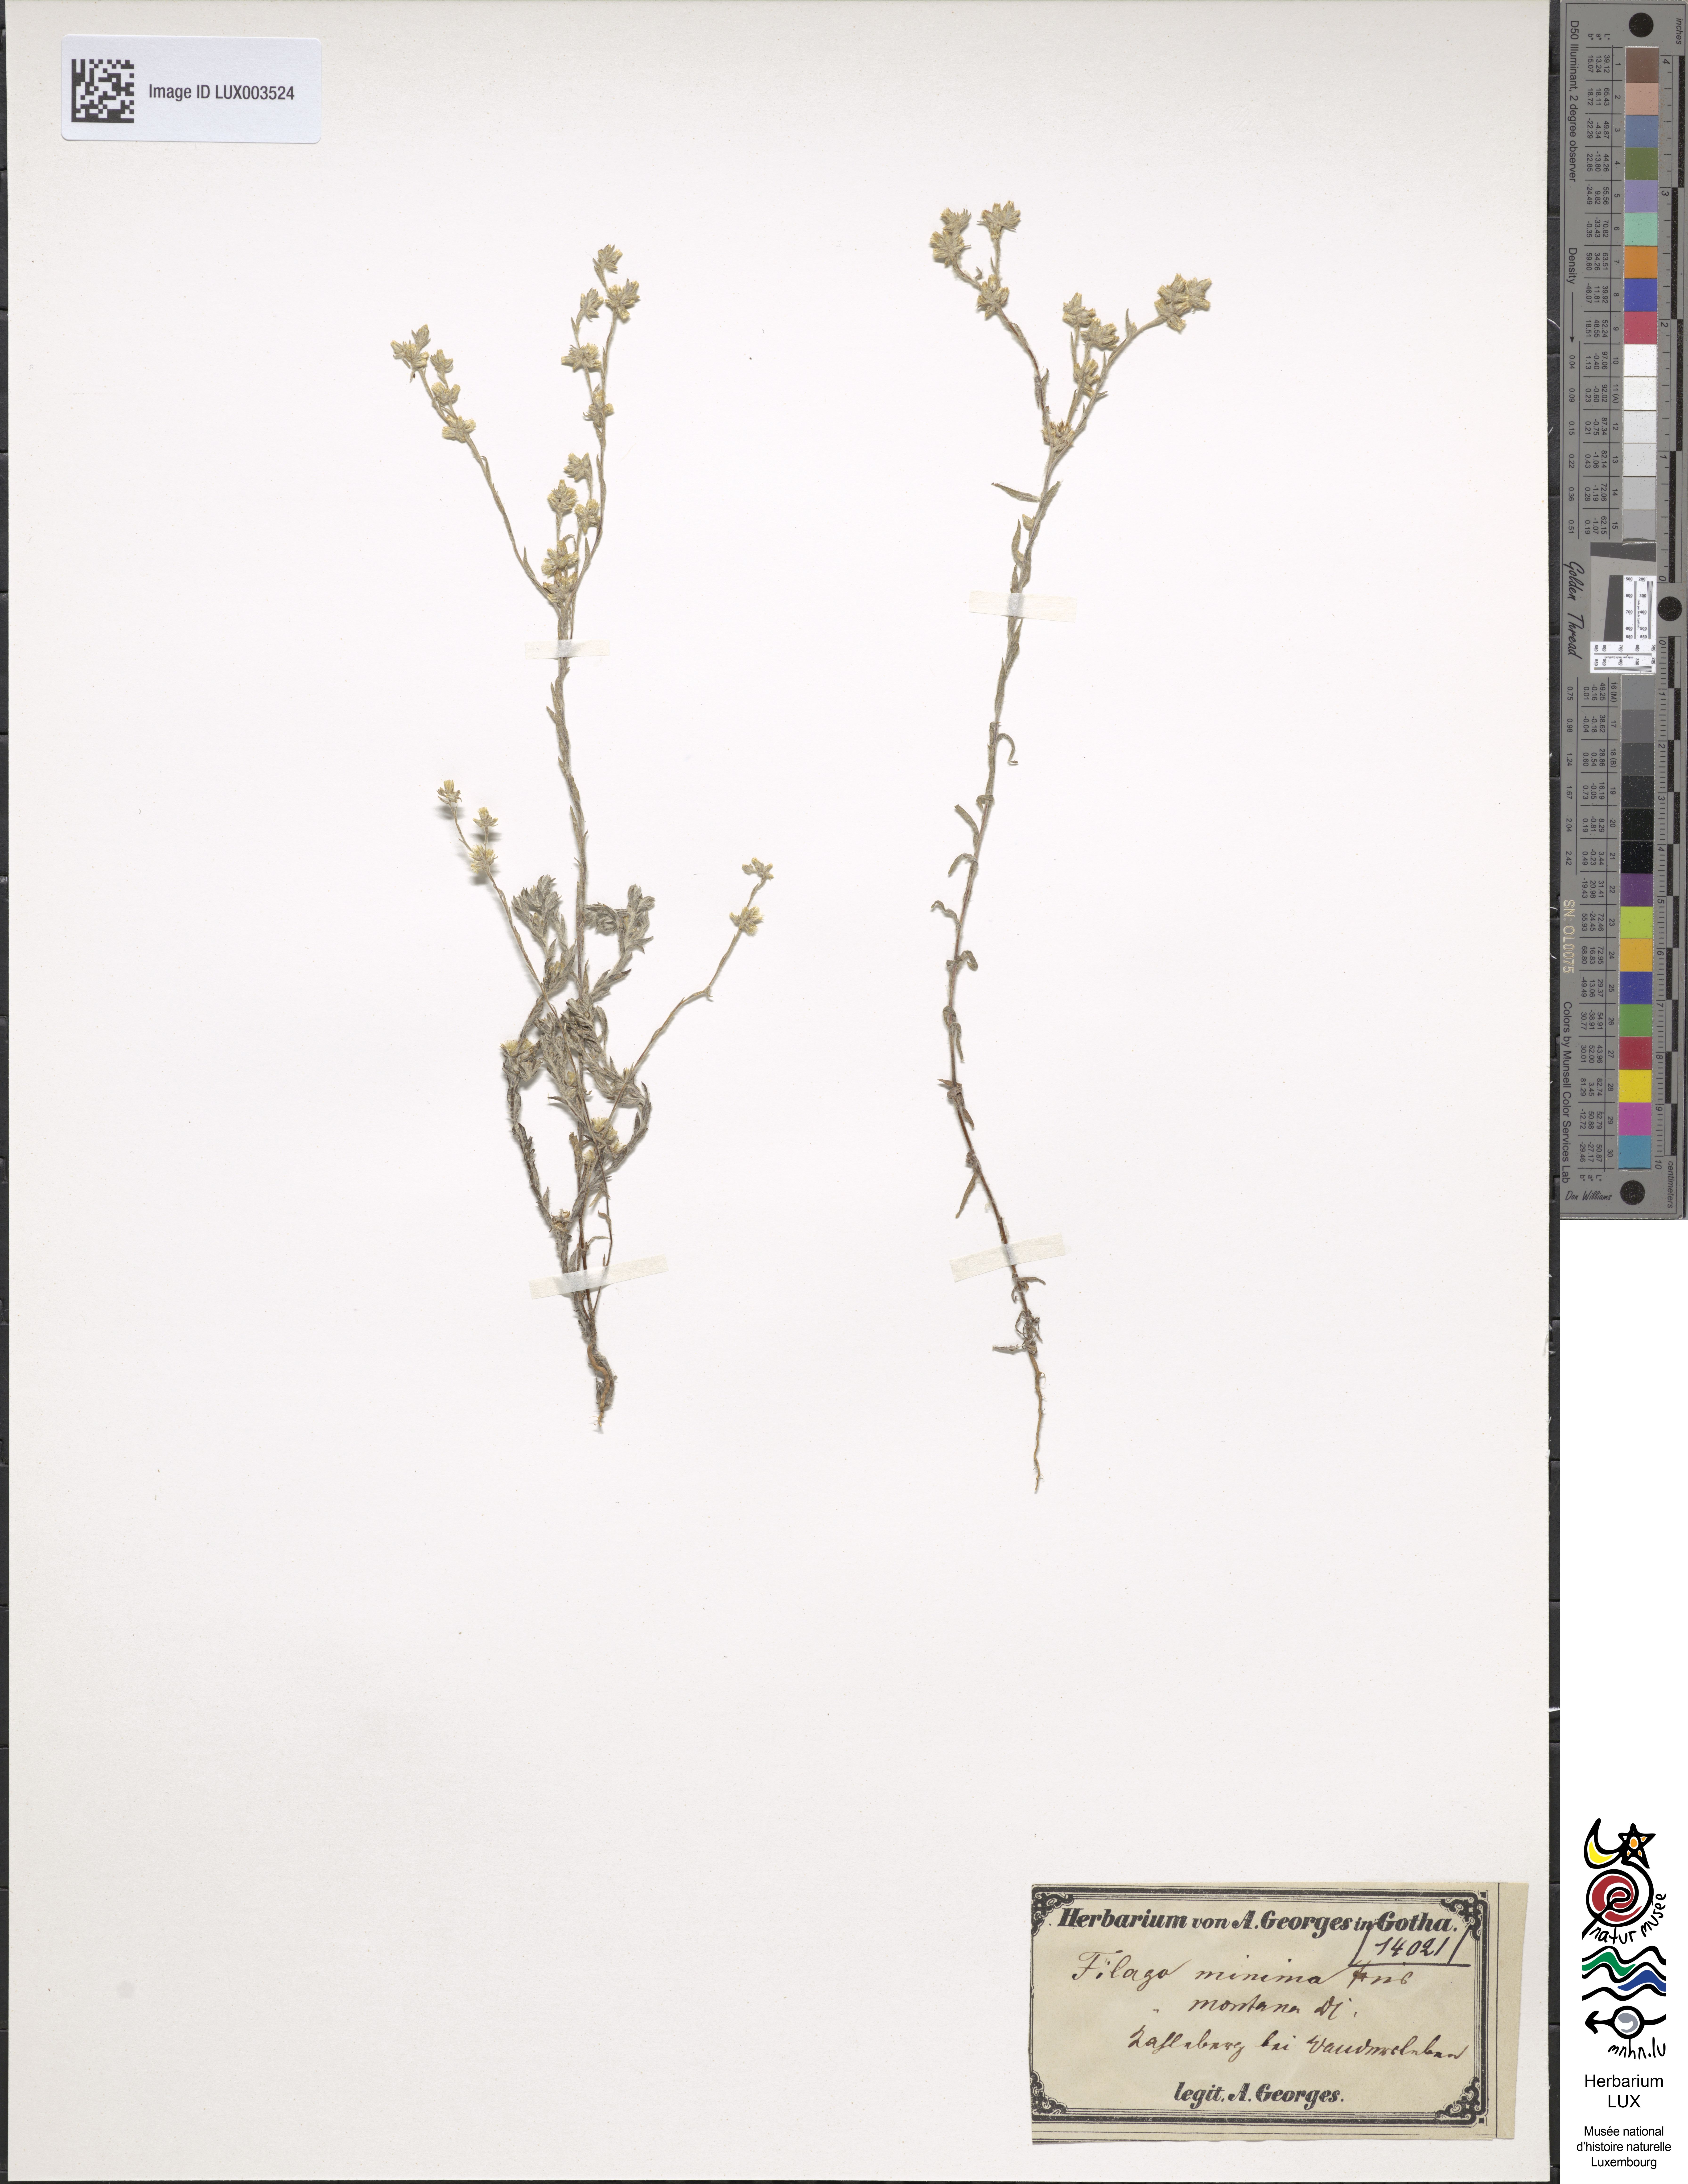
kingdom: Plantae
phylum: Tracheophyta
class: Magnoliopsida
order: Asterales
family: Asteraceae
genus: Logfia
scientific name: Logfia minima
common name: Little cottonrose
